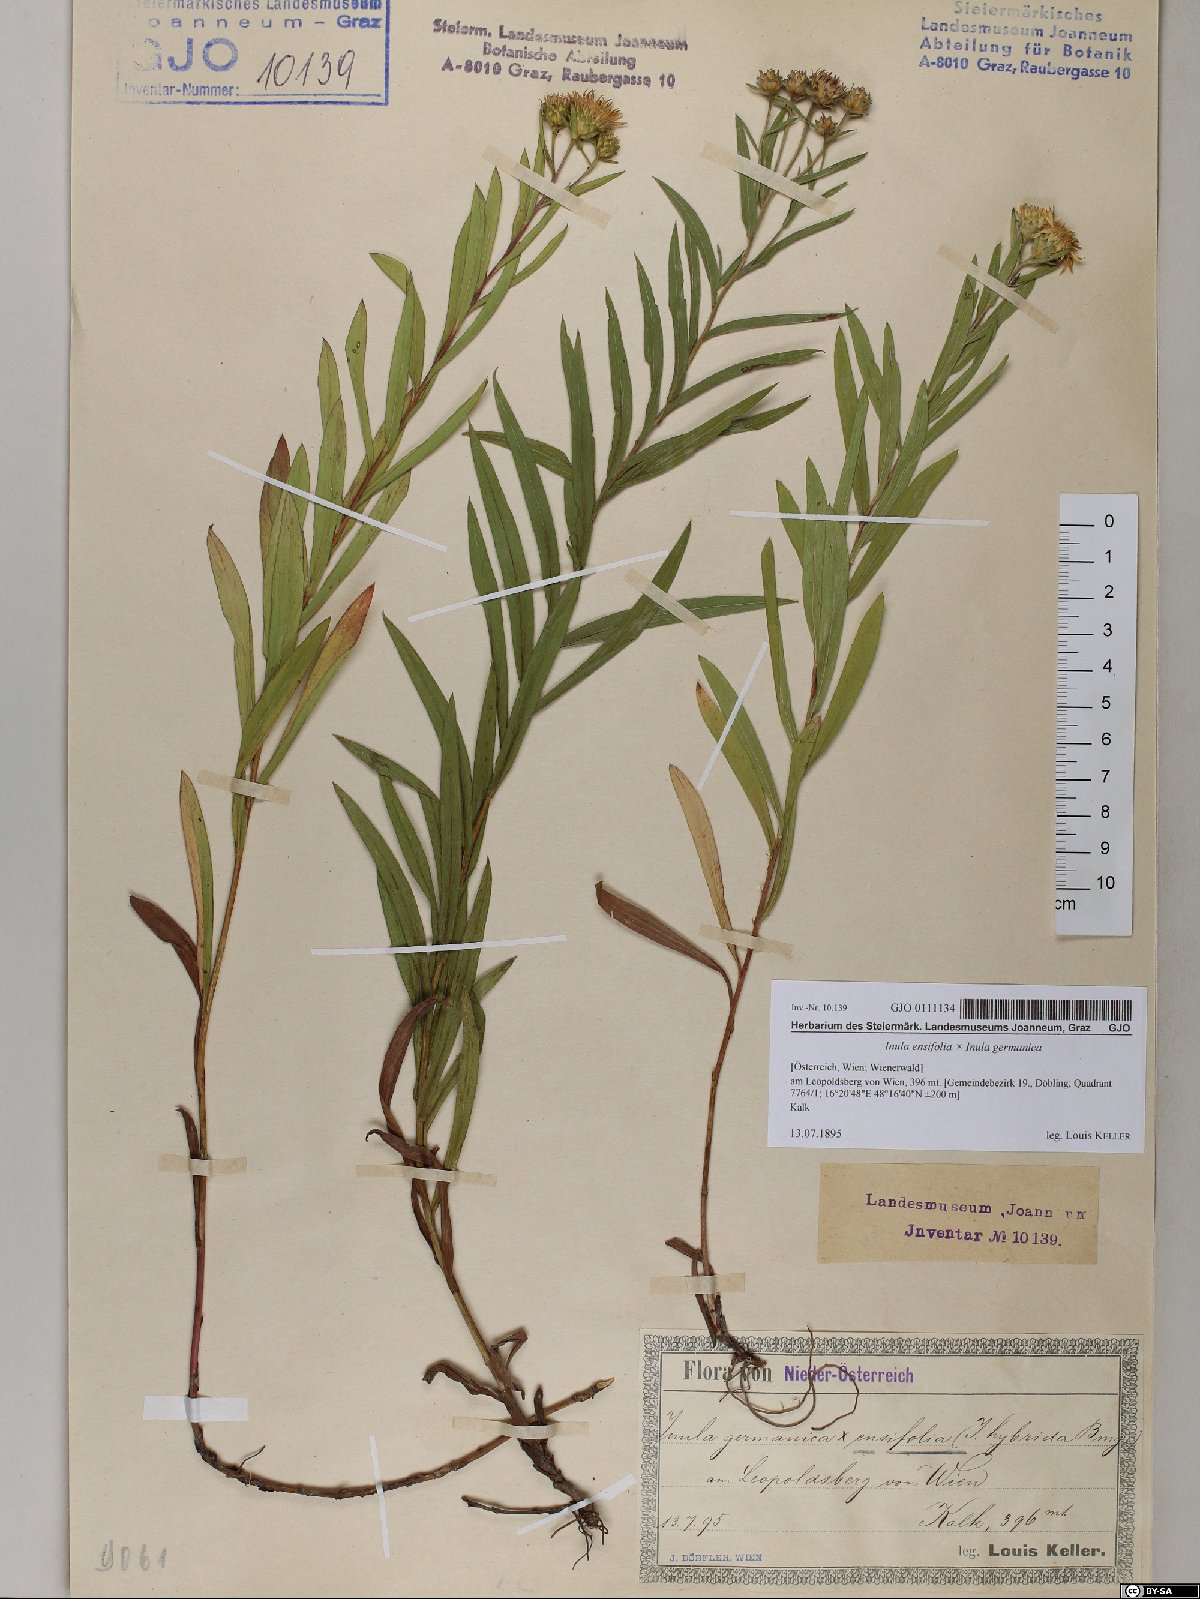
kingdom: Plantae
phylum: Tracheophyta
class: Magnoliopsida
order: Asterales
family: Asteraceae
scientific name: Asteraceae
